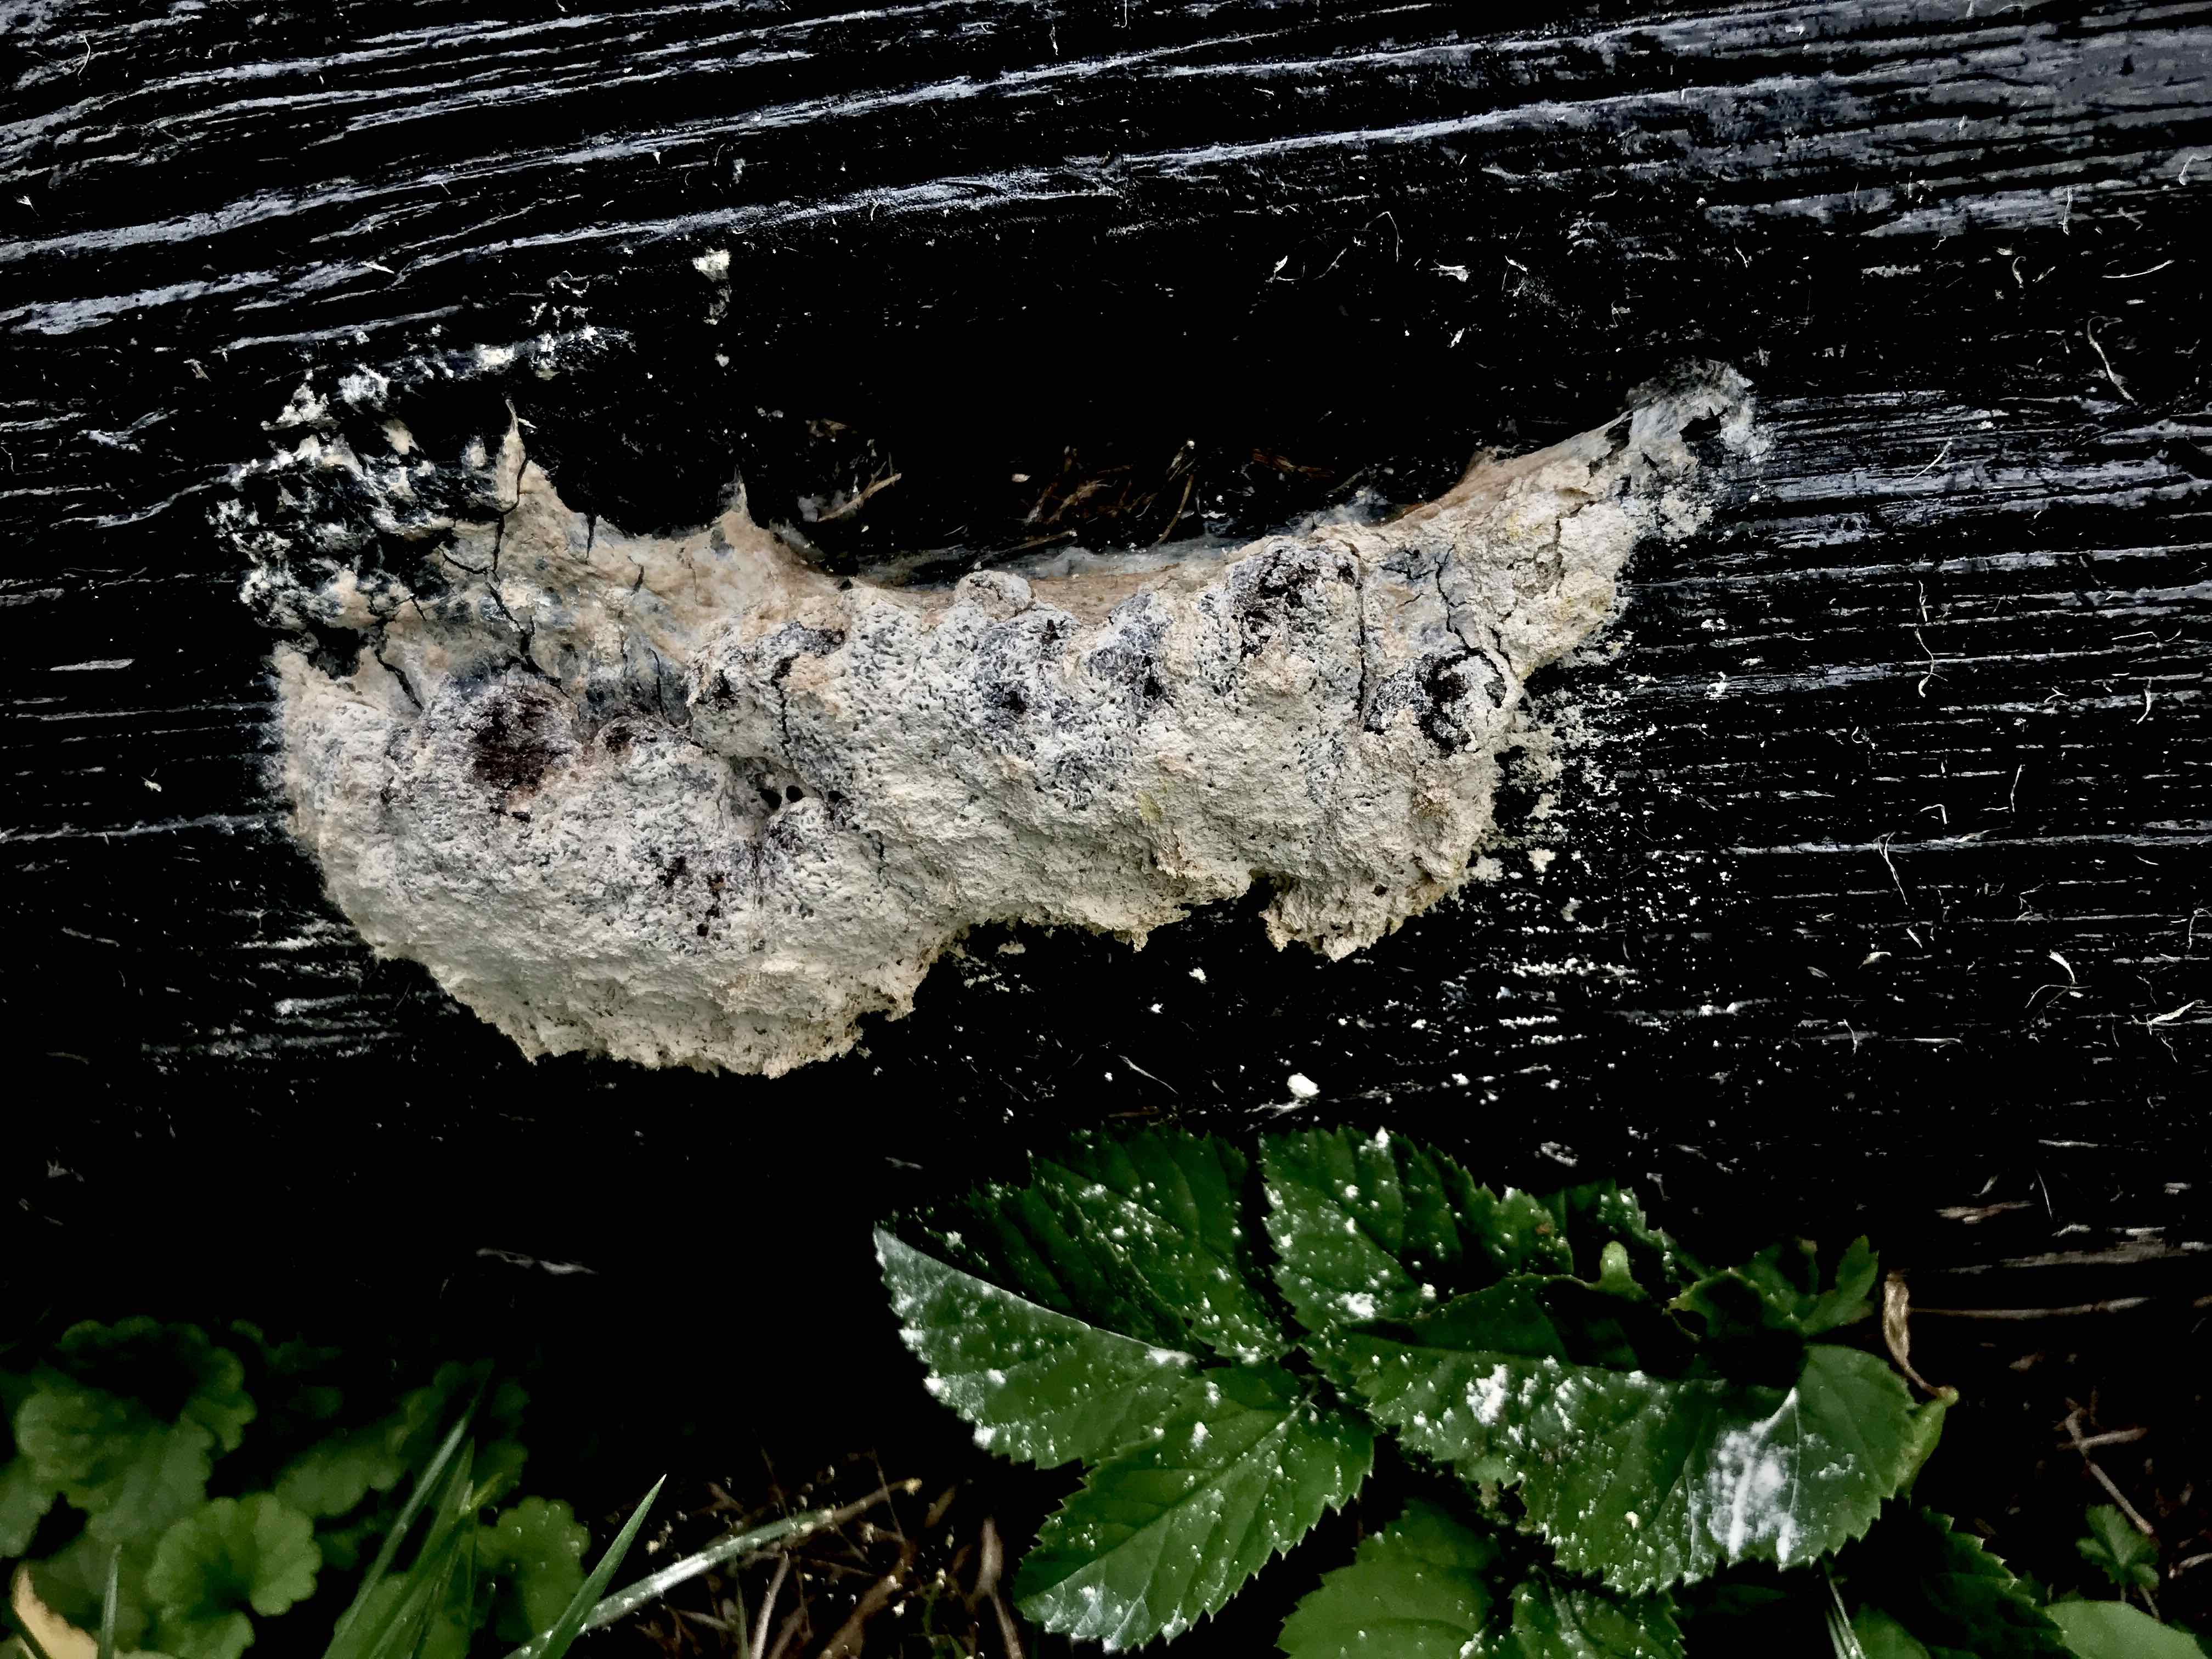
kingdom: Protozoa
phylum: Mycetozoa
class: Myxomycetes
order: Physarales
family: Physaraceae
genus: Fuligo
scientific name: Fuligo septica
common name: gul troldsmør
